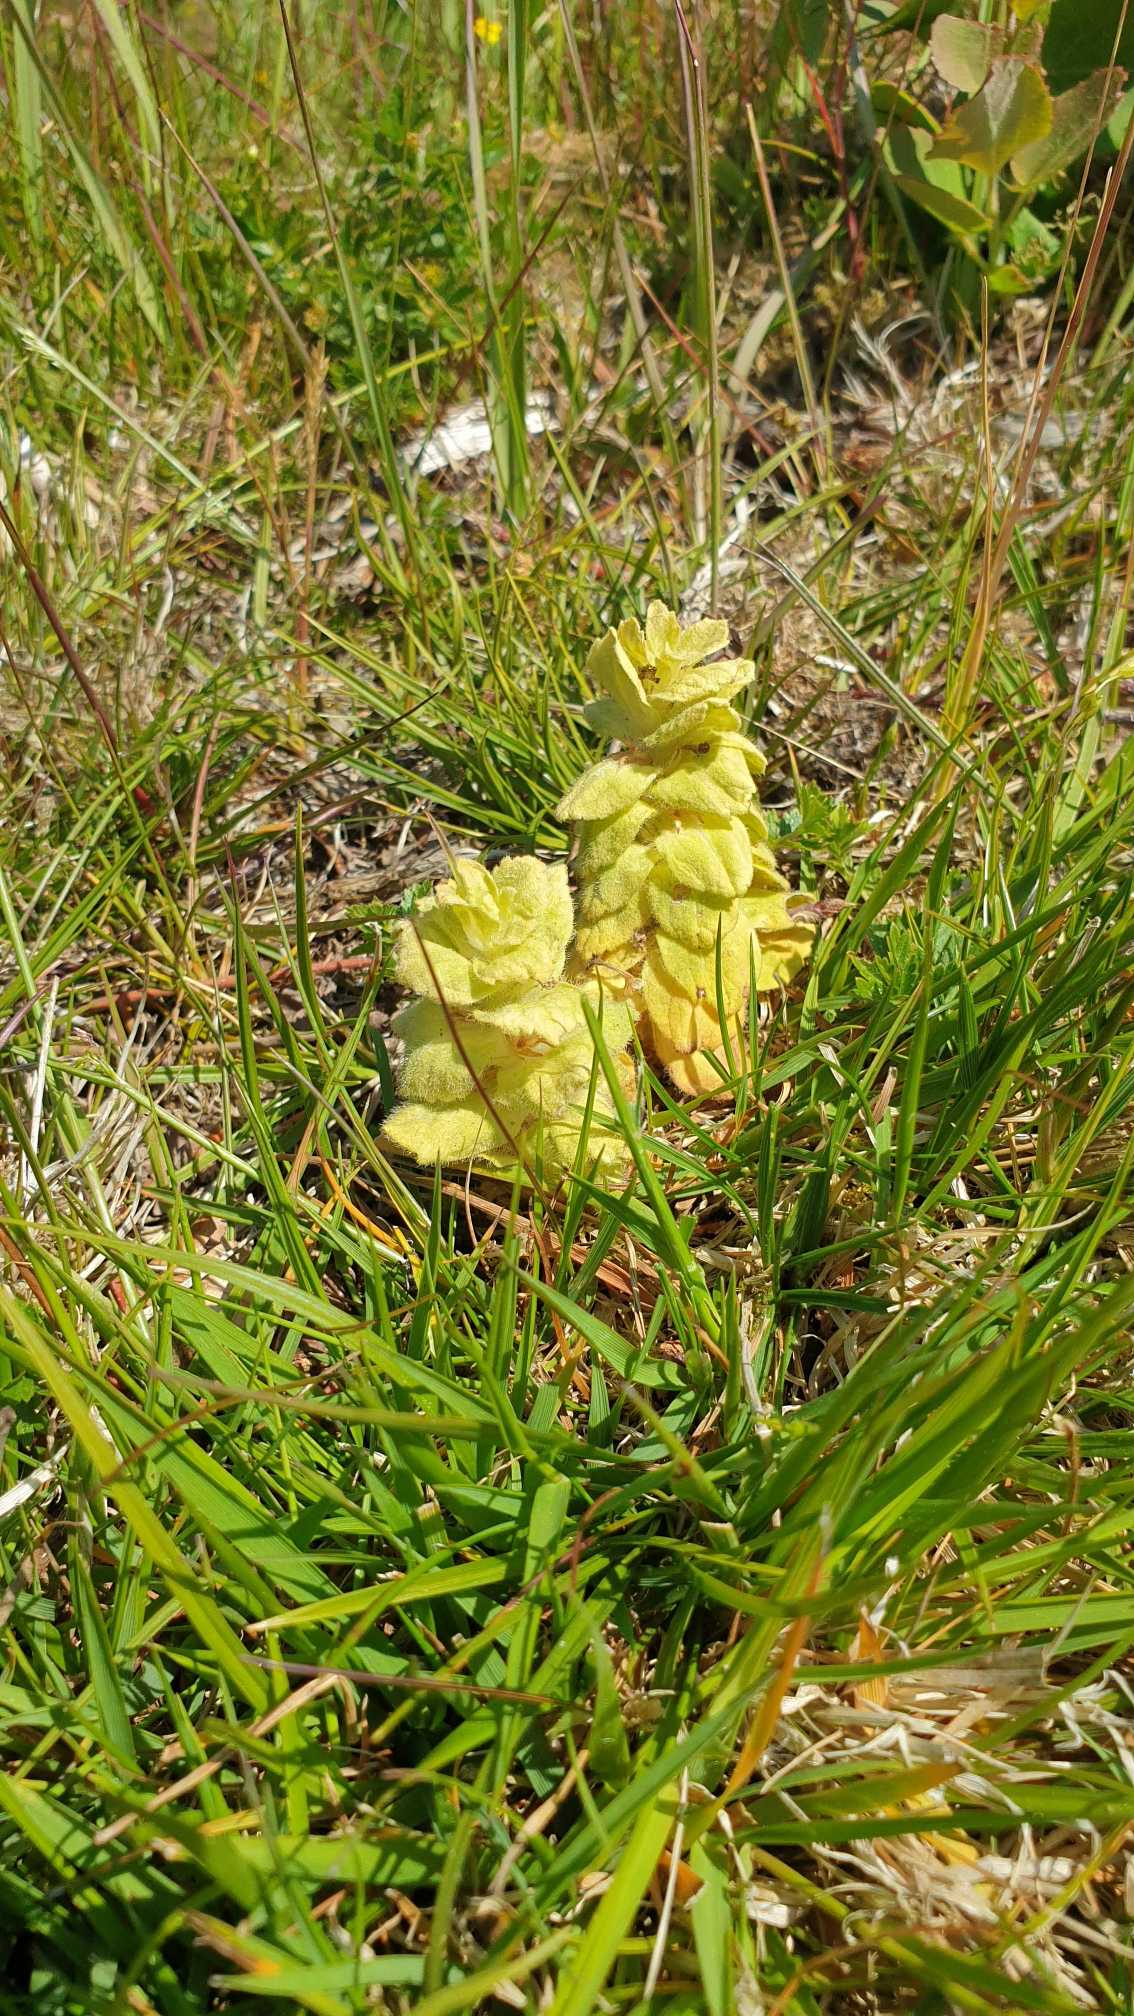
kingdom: Plantae
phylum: Tracheophyta
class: Magnoliopsida
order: Lamiales
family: Lamiaceae
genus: Ajuga
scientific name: Ajuga pyramidalis
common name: Pyramide-læbeløs
